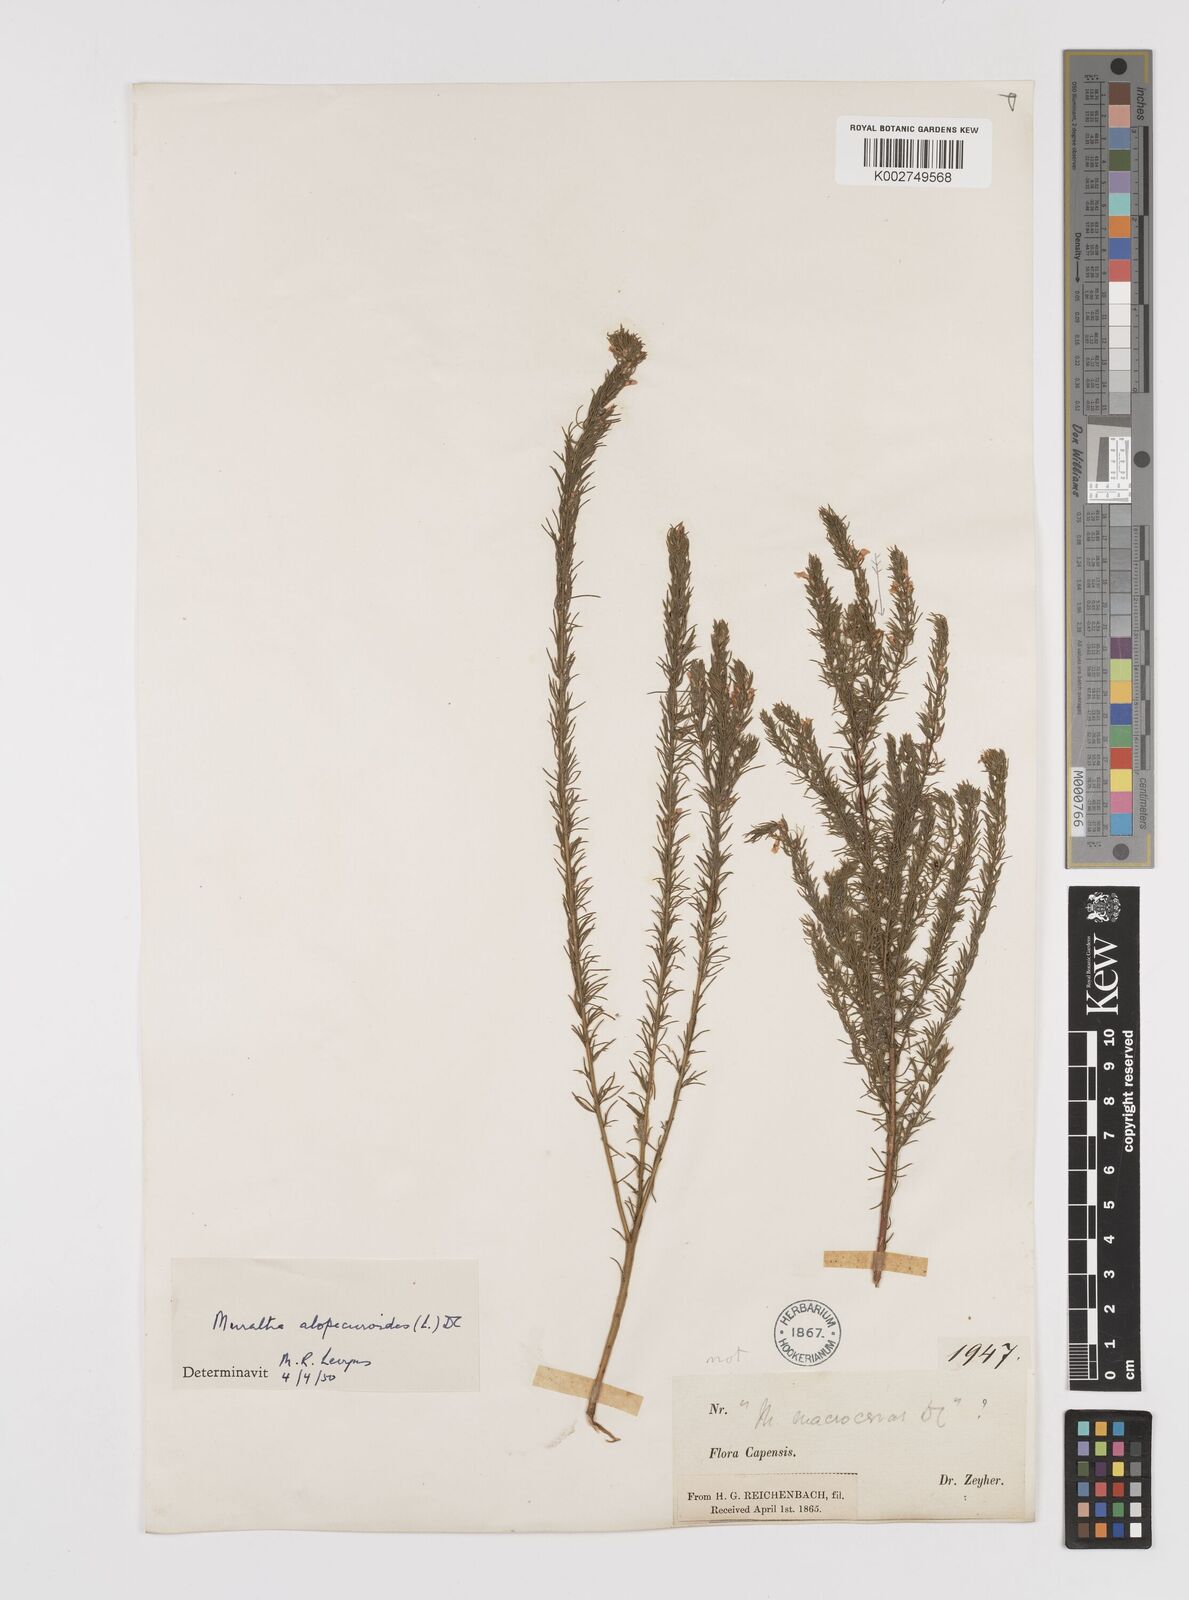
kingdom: Plantae
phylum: Tracheophyta
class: Magnoliopsida
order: Fabales
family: Polygalaceae
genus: Muraltia
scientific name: Muraltia alopecuroides
